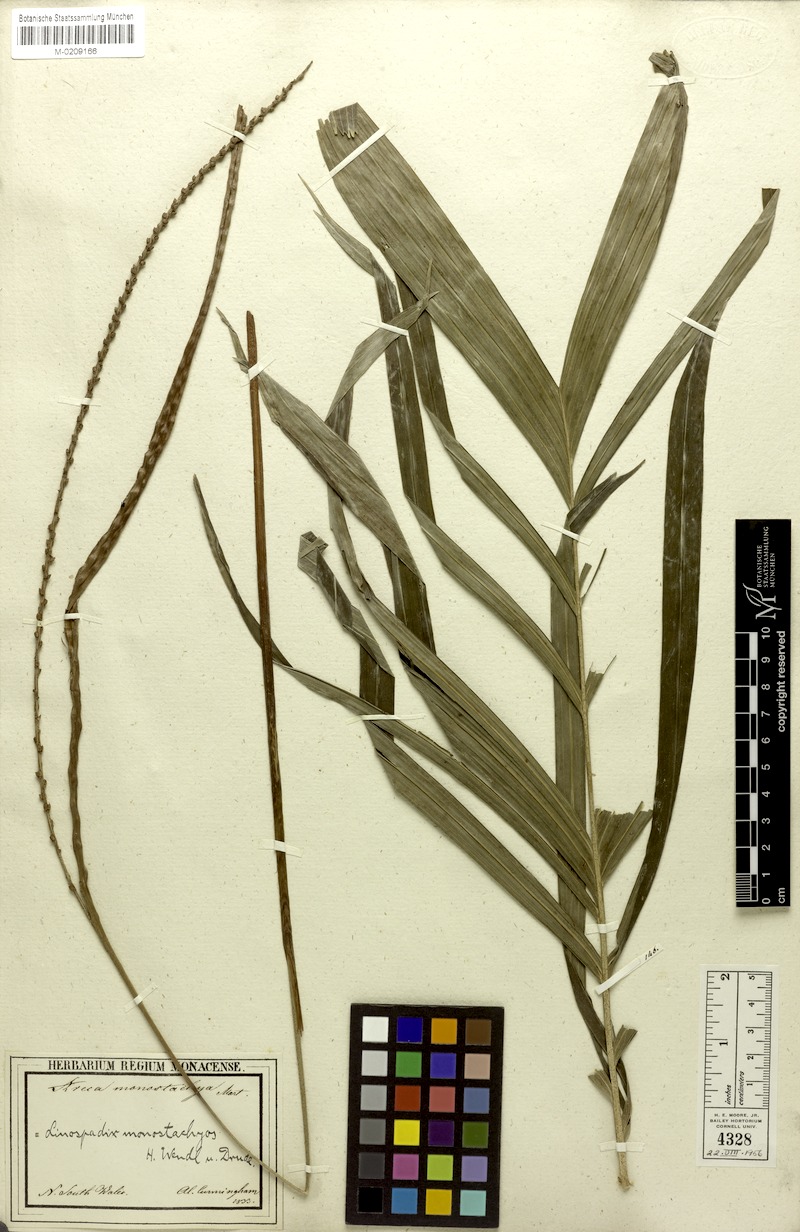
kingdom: Plantae
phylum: Tracheophyta
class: Liliopsida
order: Arecales
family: Arecaceae
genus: Linospadix
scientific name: Linospadix monostachyos
